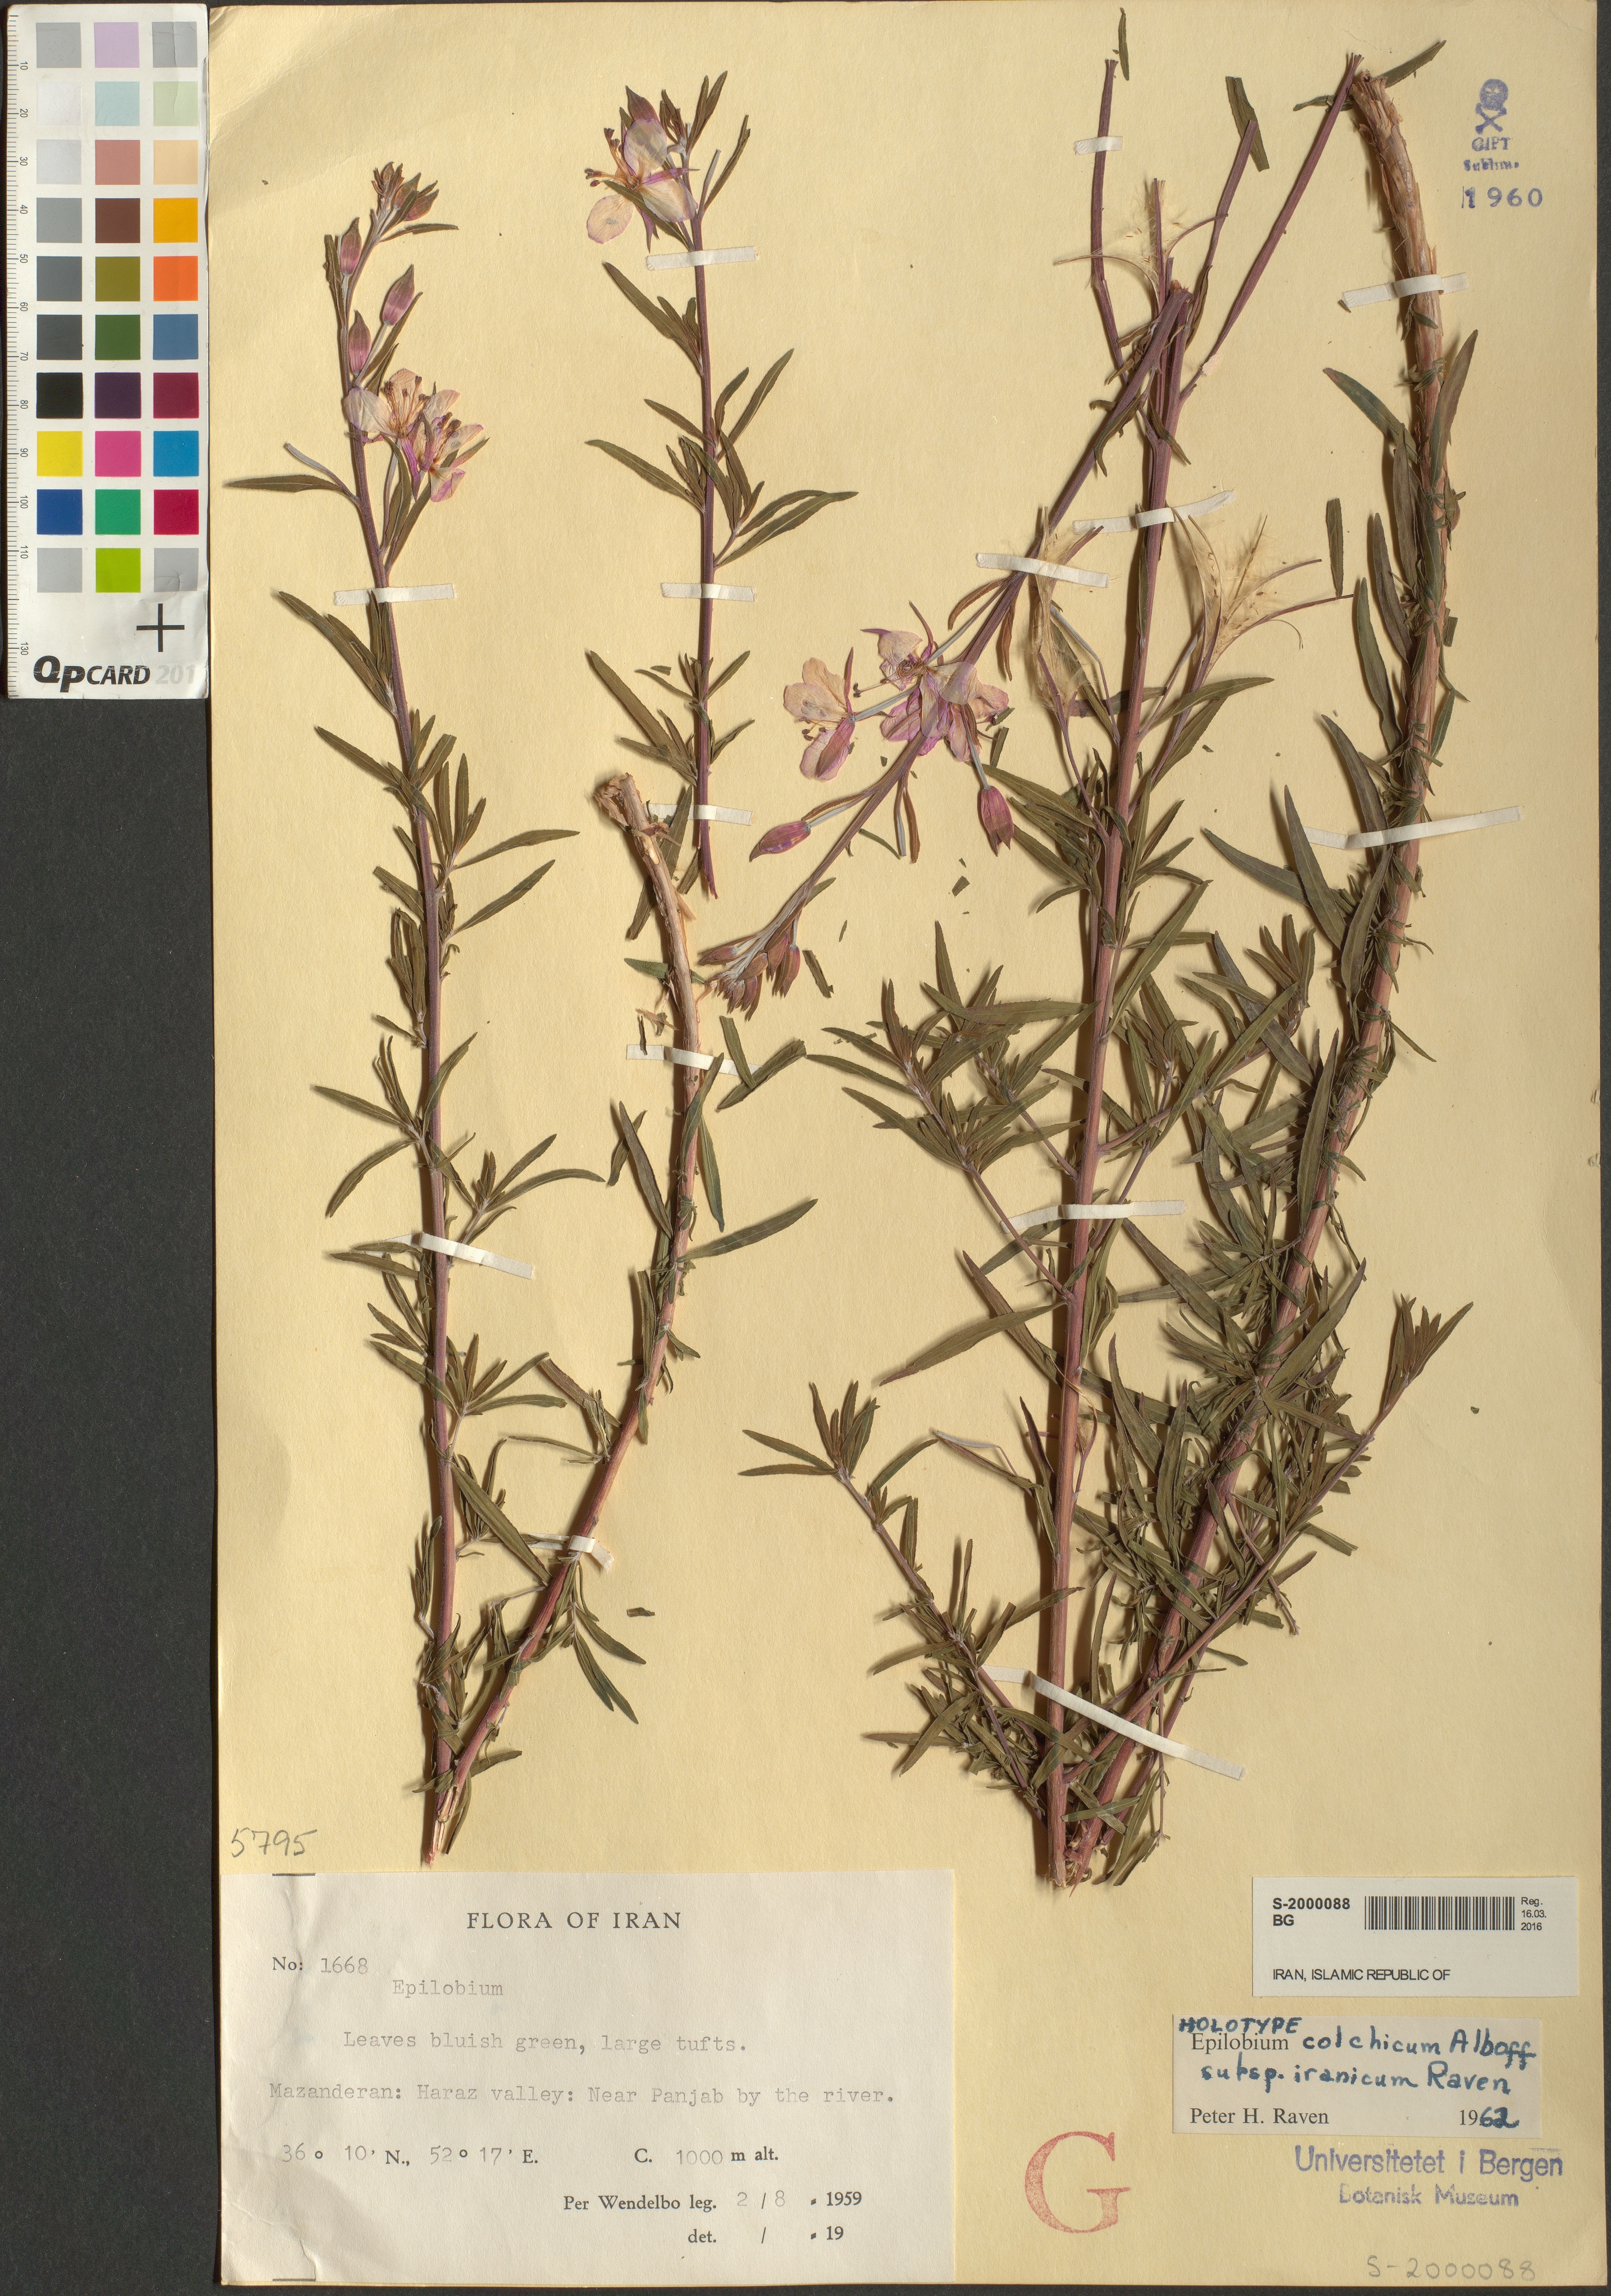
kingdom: Plantae
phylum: Tracheophyta
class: Magnoliopsida
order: Myrtales
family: Onagraceae
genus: Chamaenerion
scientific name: Chamaenerion colchicum
